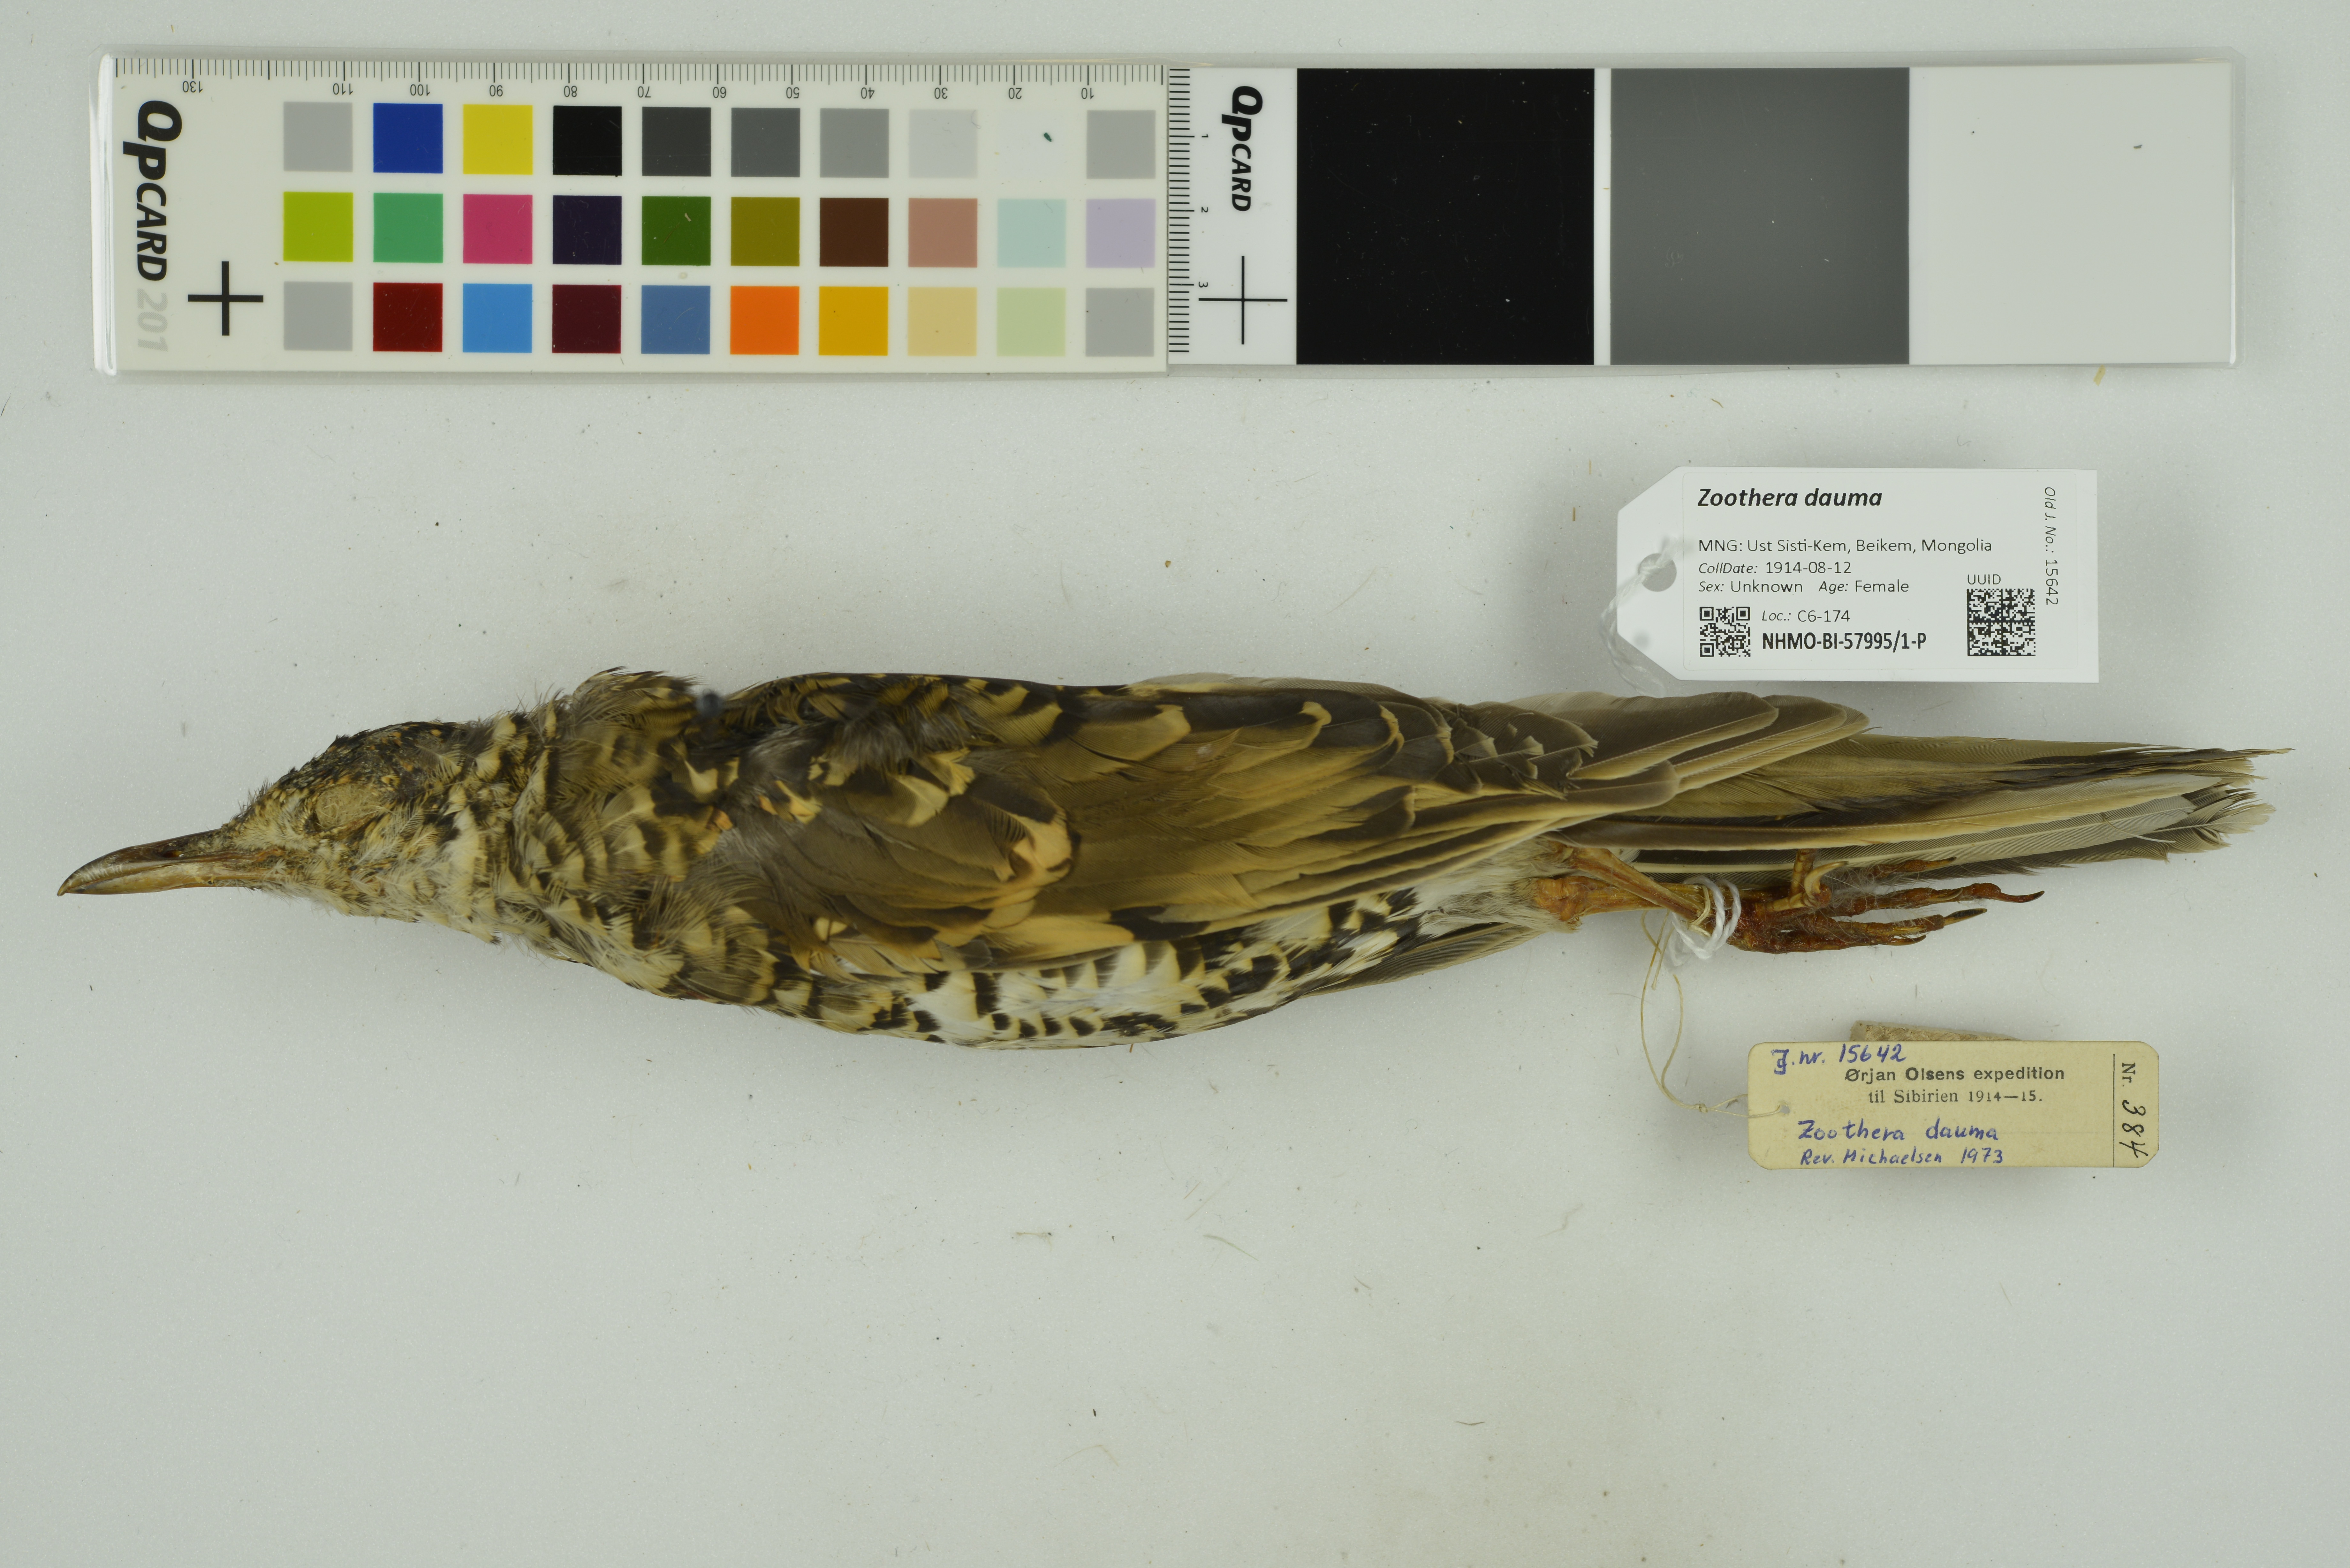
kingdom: Animalia
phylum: Chordata
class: Aves
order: Passeriformes
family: Turdidae
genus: Zoothera
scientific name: Zoothera dauma
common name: Scaly thrush
